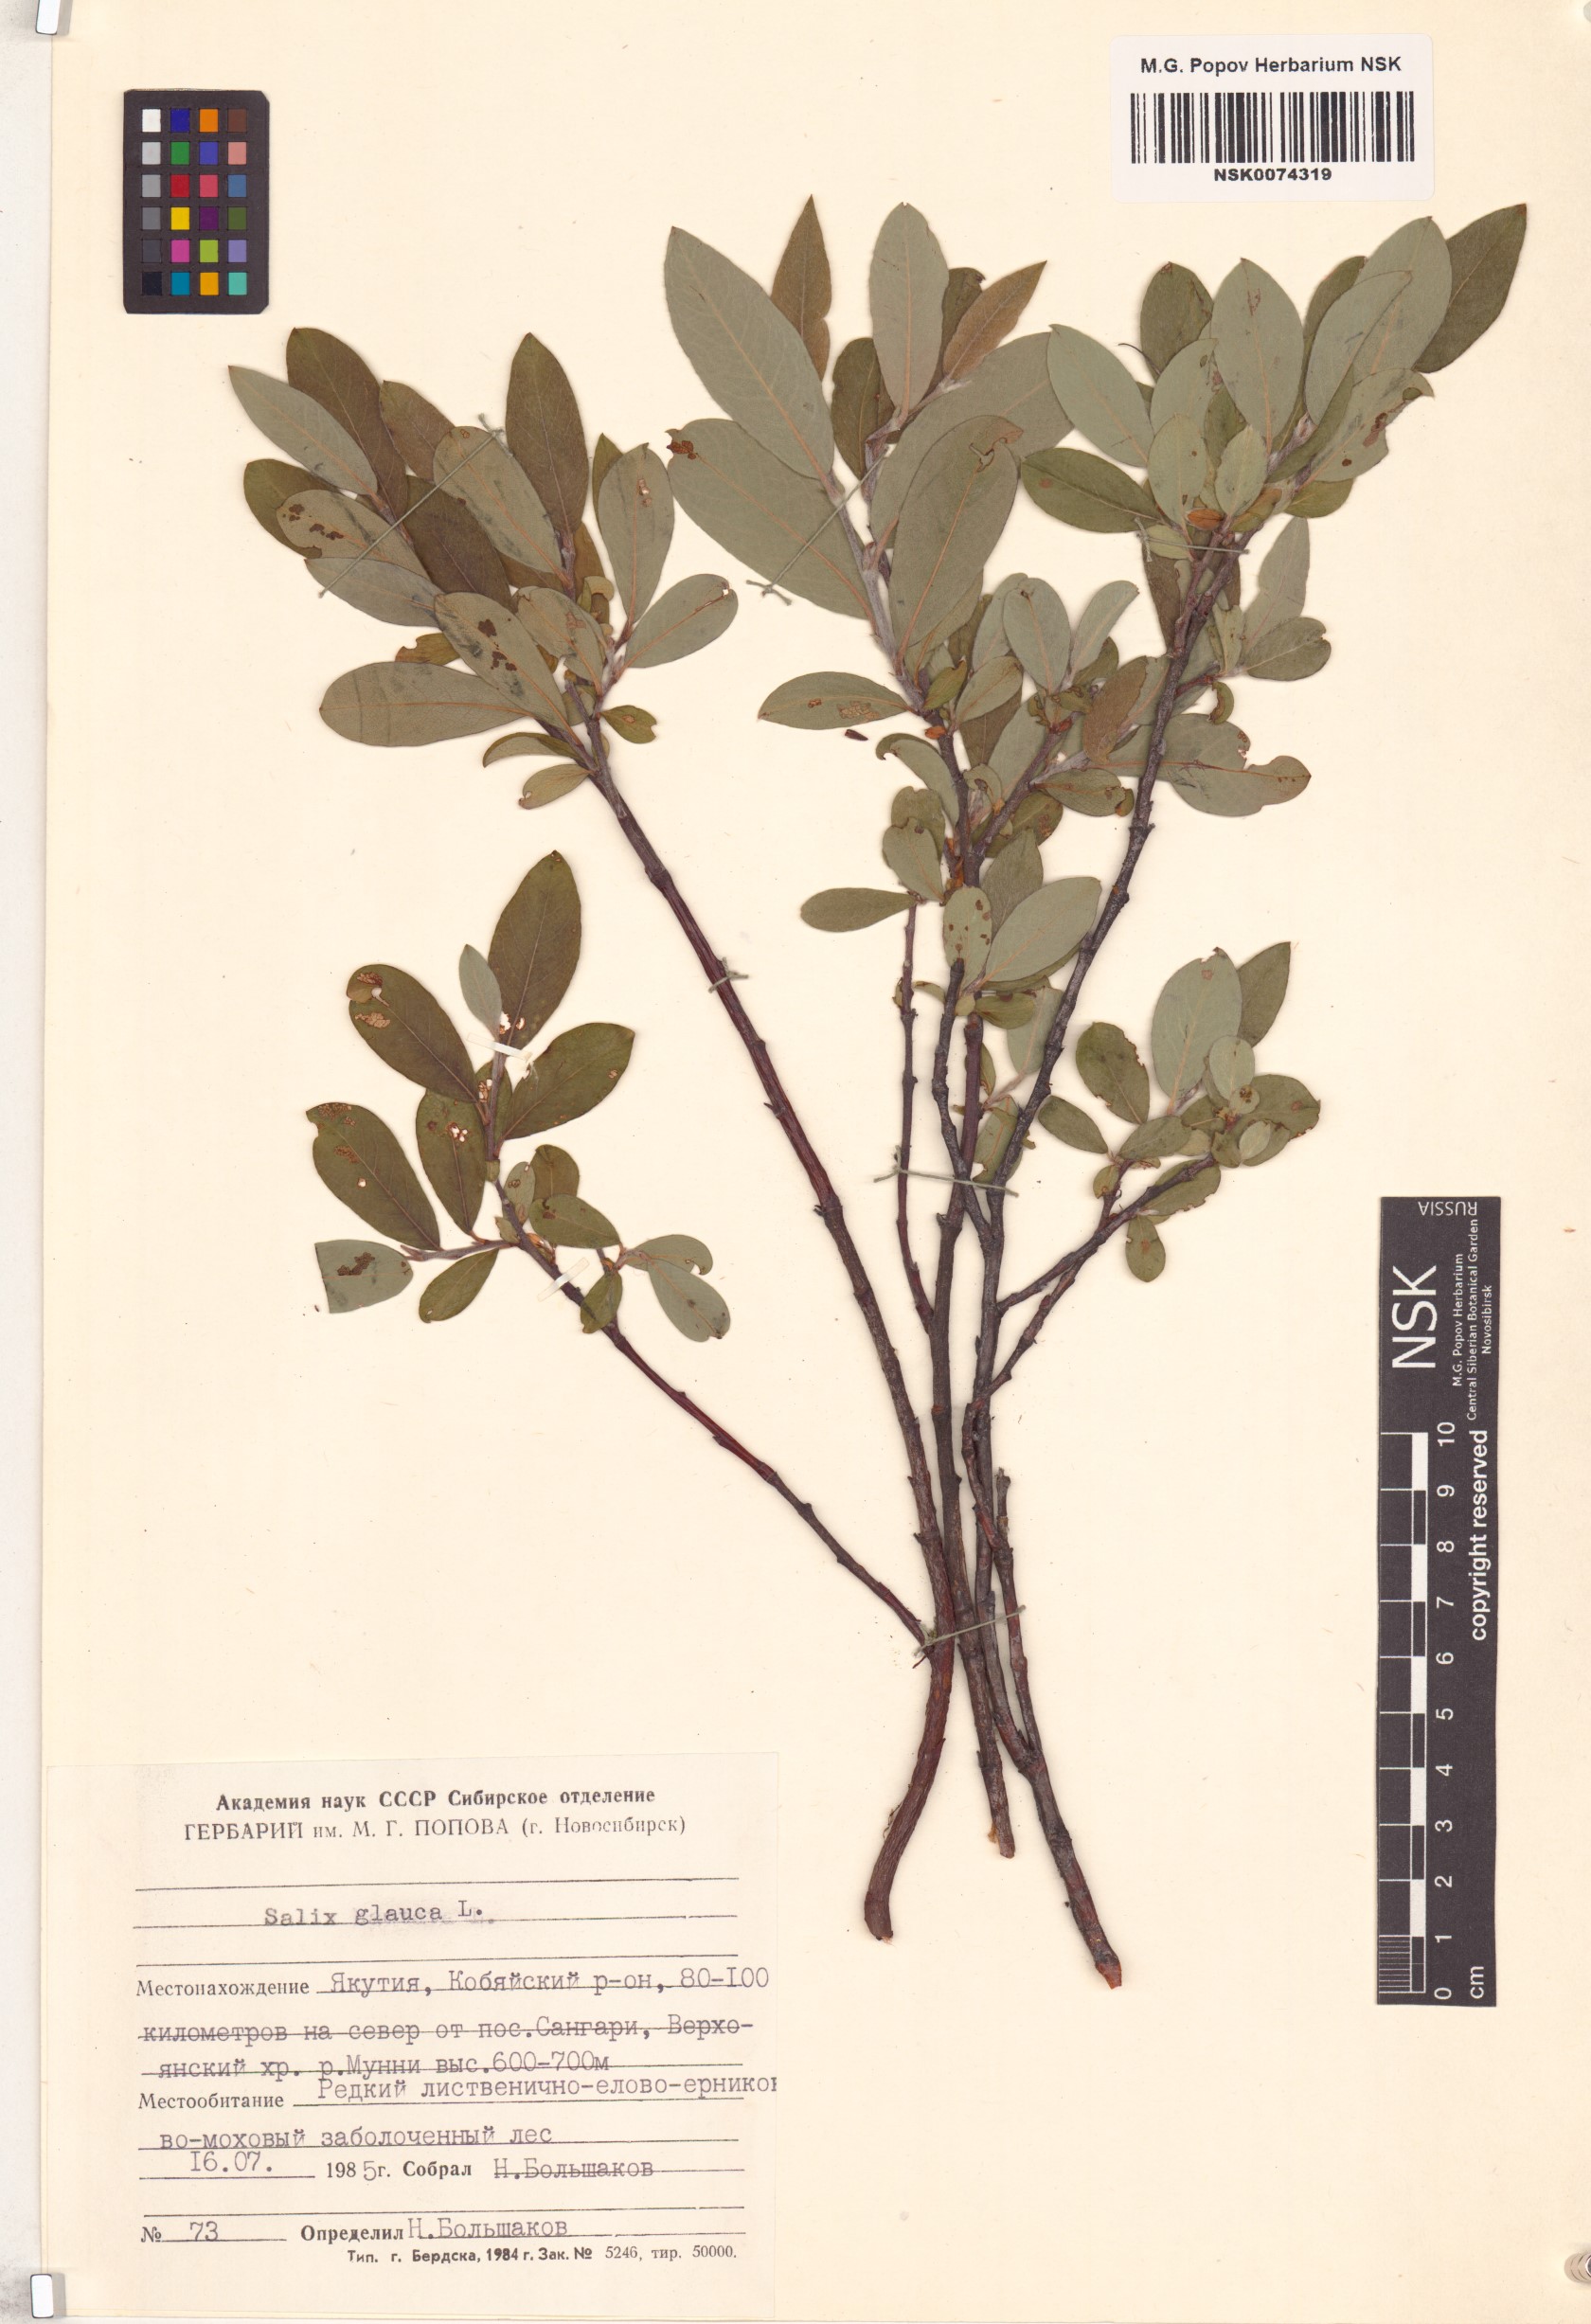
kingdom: Plantae
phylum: Tracheophyta
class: Magnoliopsida
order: Malpighiales
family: Salicaceae
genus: Salix
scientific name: Salix glauca
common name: Glaucous willow
